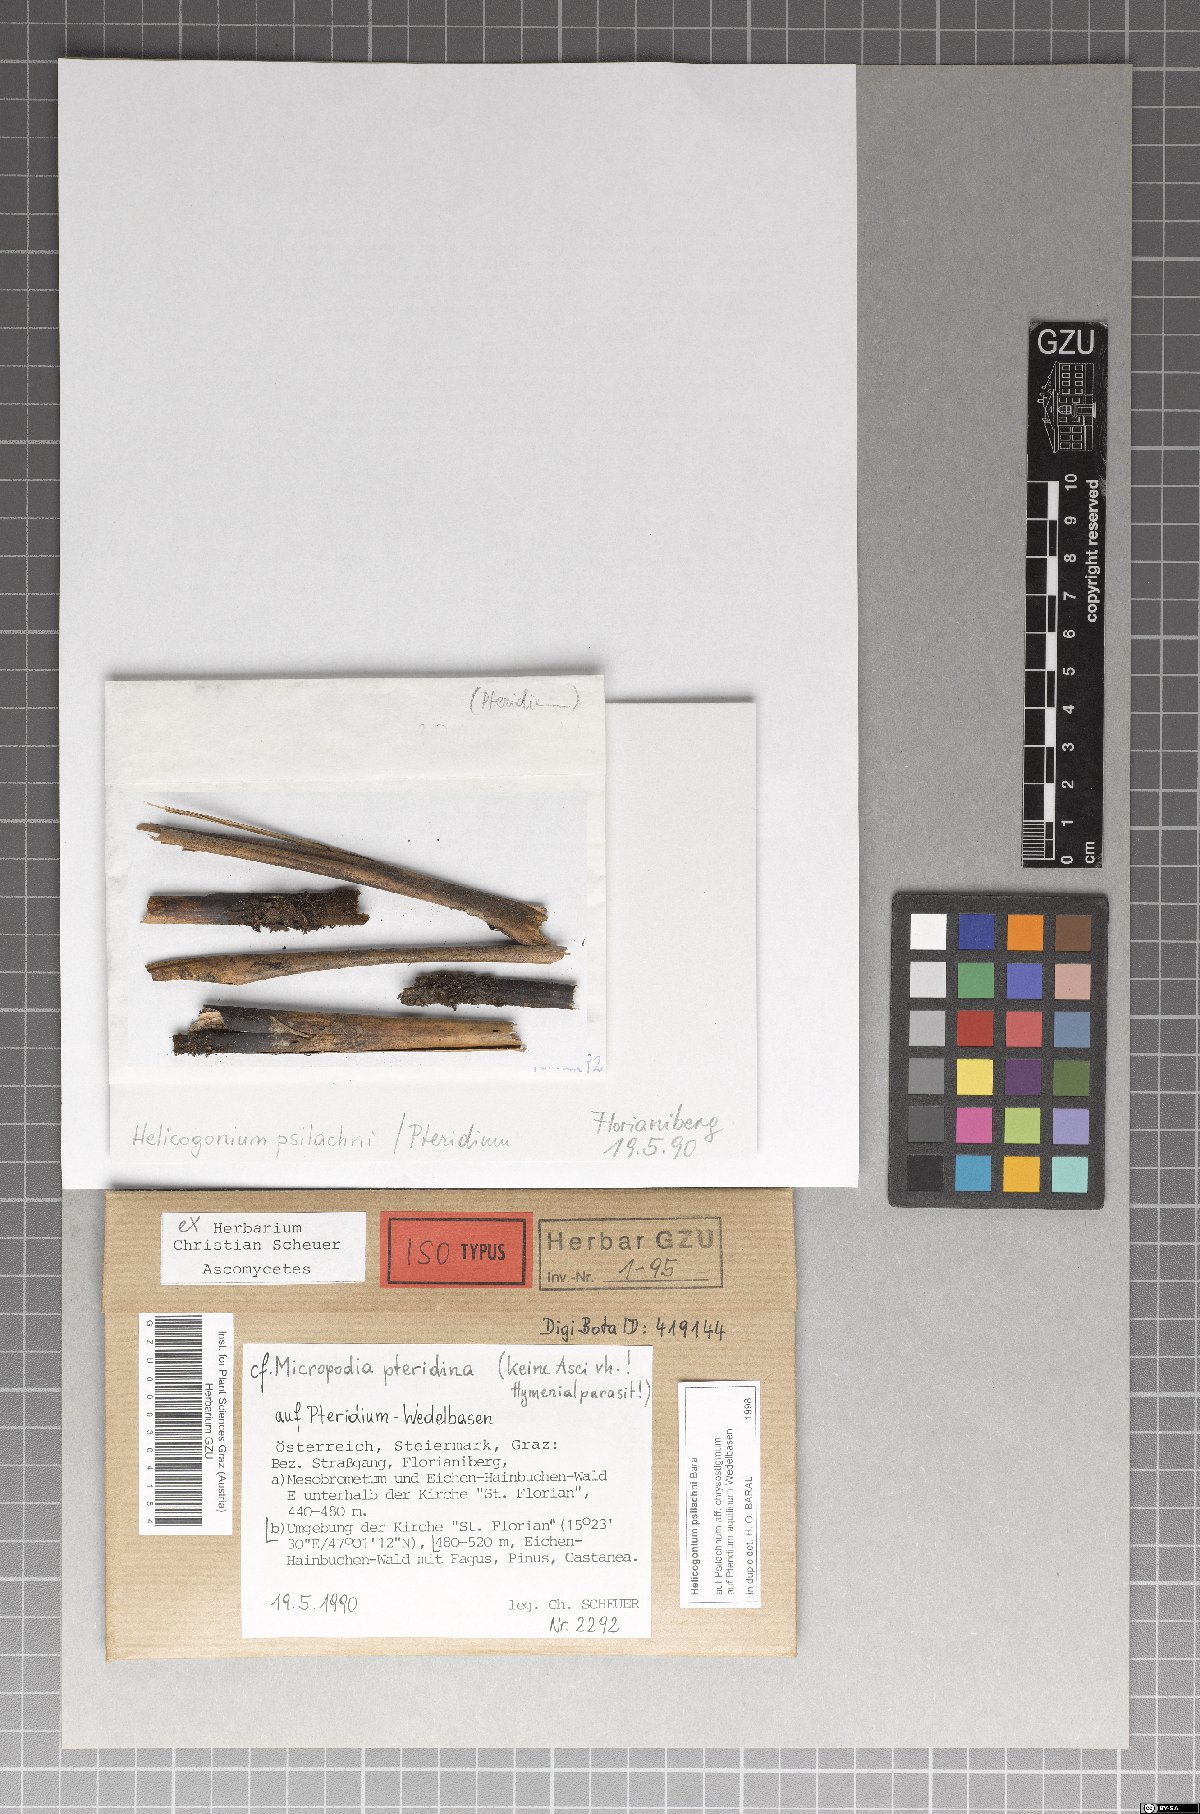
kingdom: Fungi
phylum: Ascomycota
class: Saccharomycetes
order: Saccharomycetales
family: Endomycetaceae
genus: Helicogonium
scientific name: Helicogonium psilachnae
